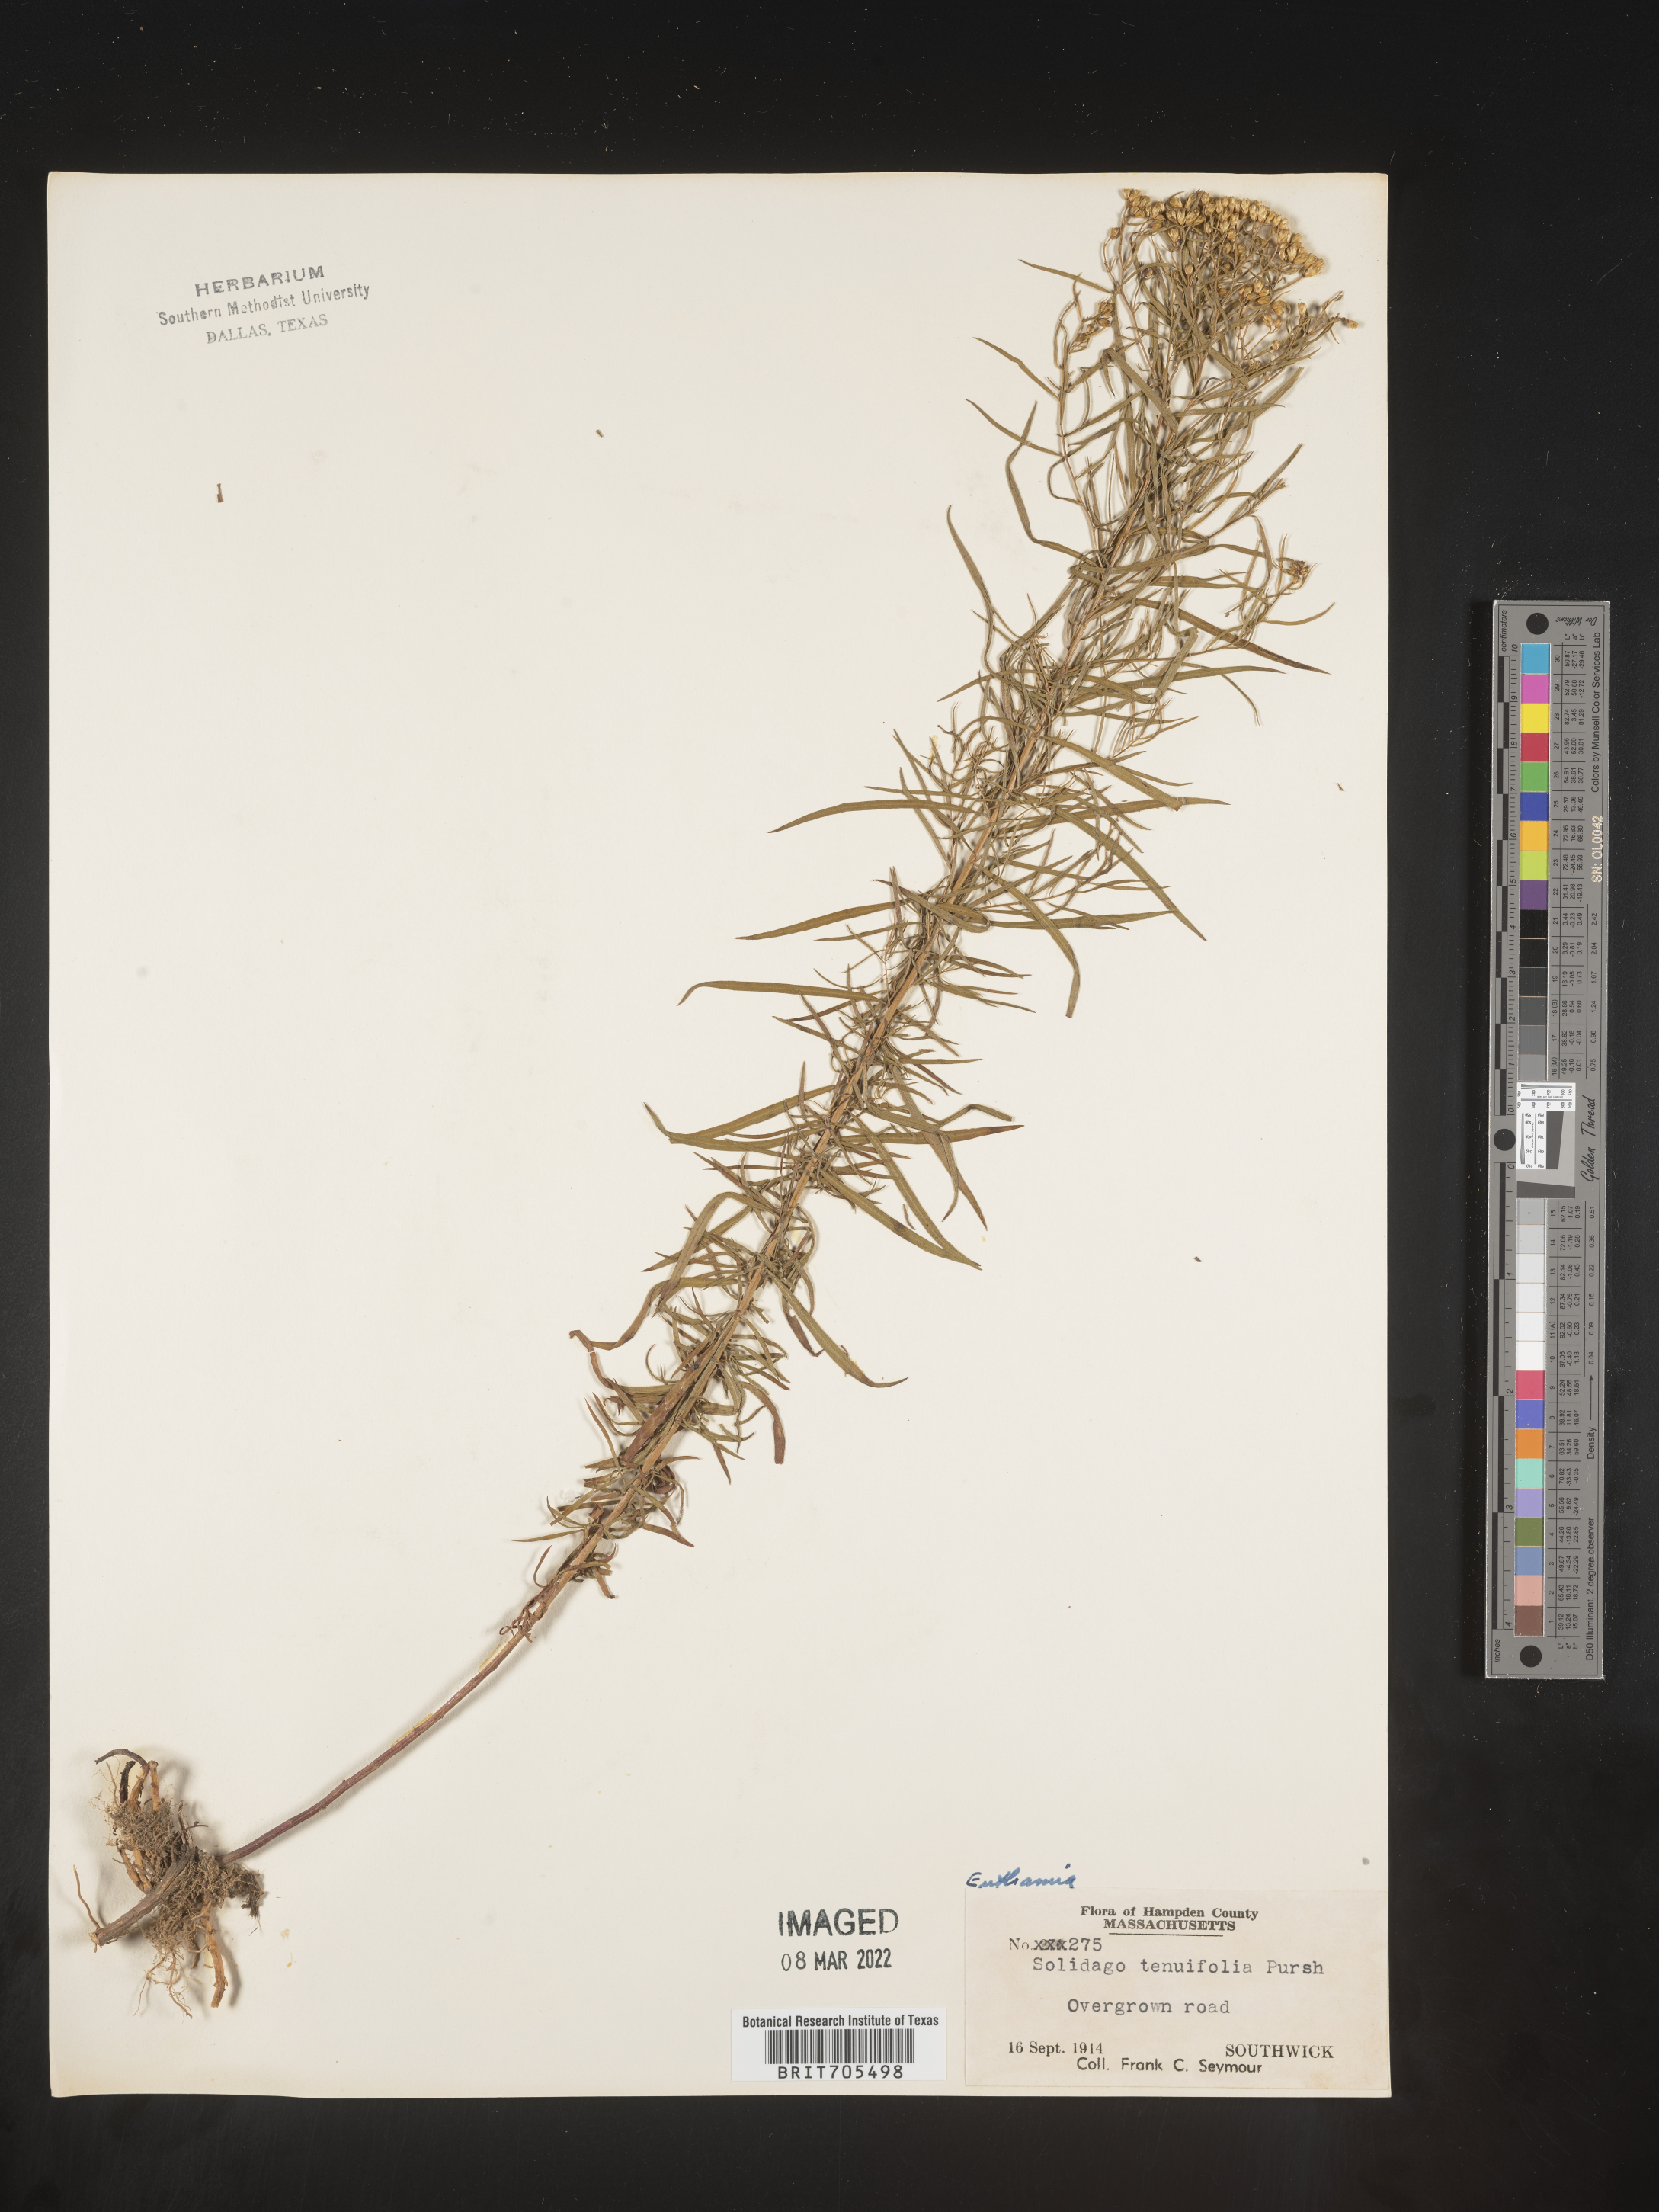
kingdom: Plantae
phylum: Tracheophyta
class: Magnoliopsida
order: Asterales
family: Asteraceae
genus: Euthamia
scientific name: Euthamia caroliniana
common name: Coastal plain goldentop
